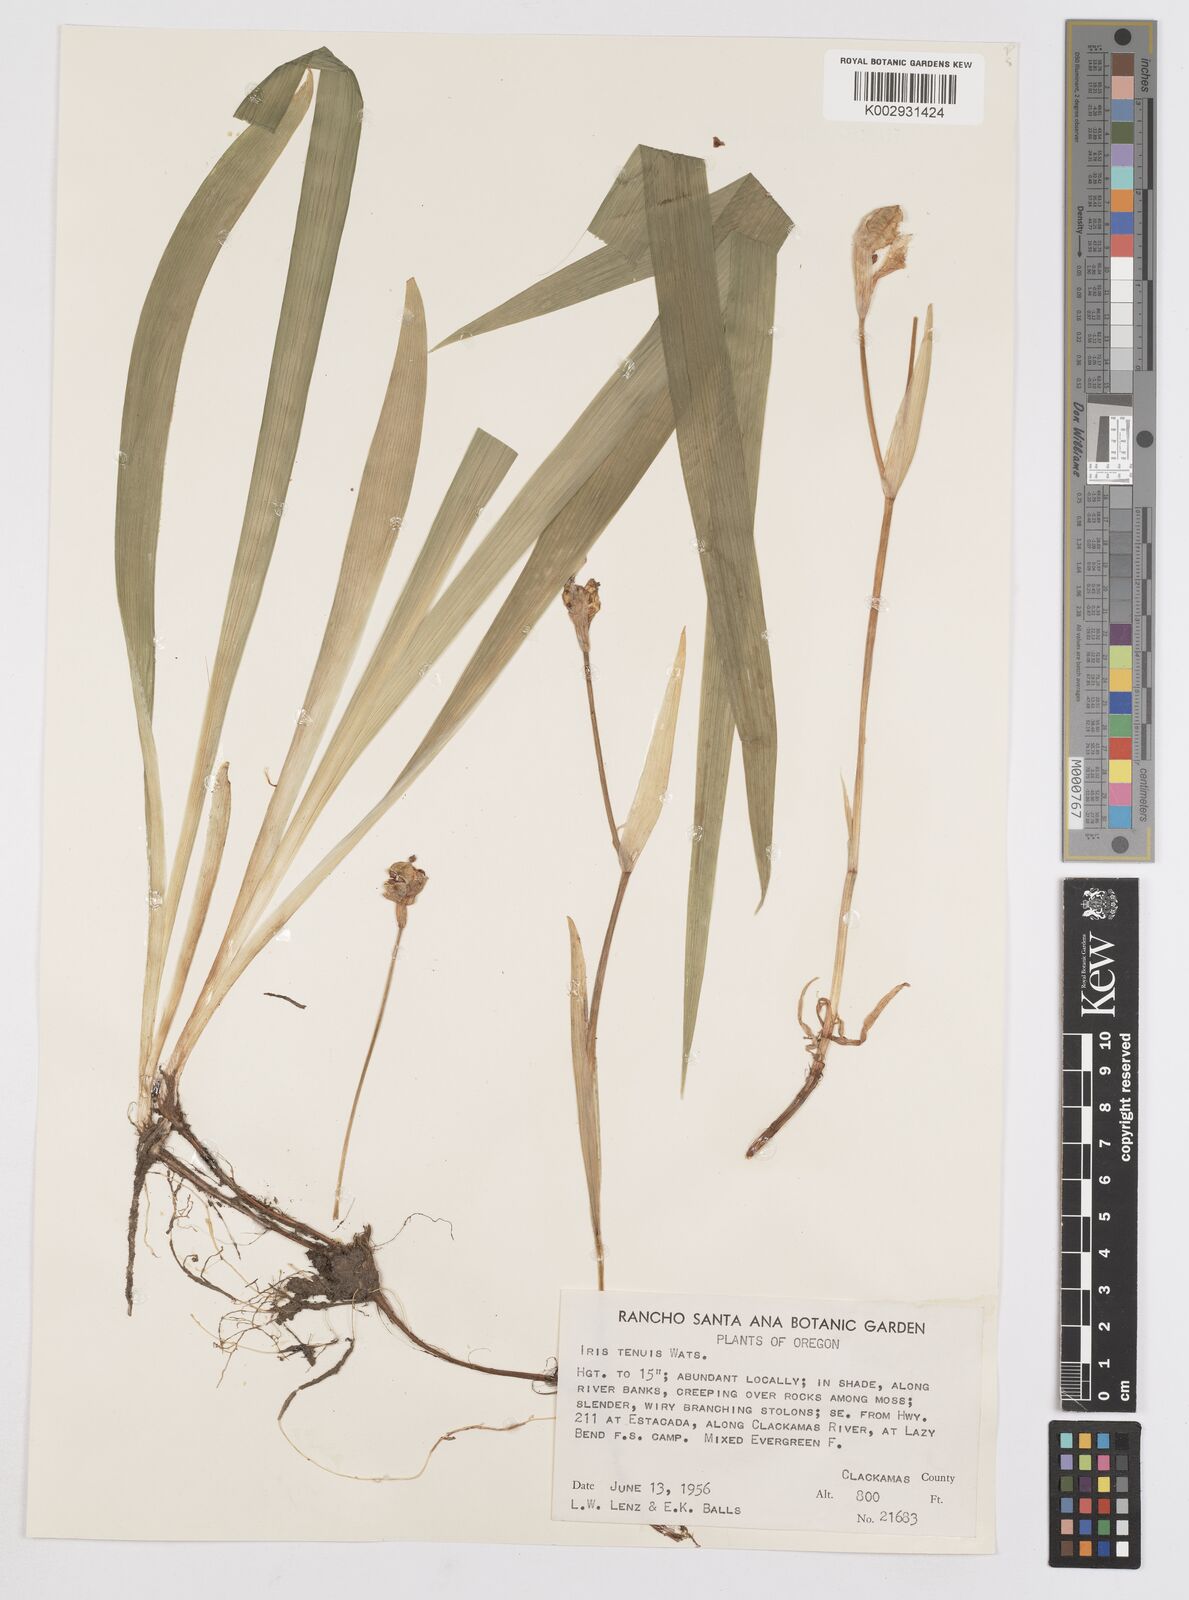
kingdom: Plantae
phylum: Tracheophyta
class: Liliopsida
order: Asparagales
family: Iridaceae
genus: Iris
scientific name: Iris tenuis
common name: Clackamas iris
